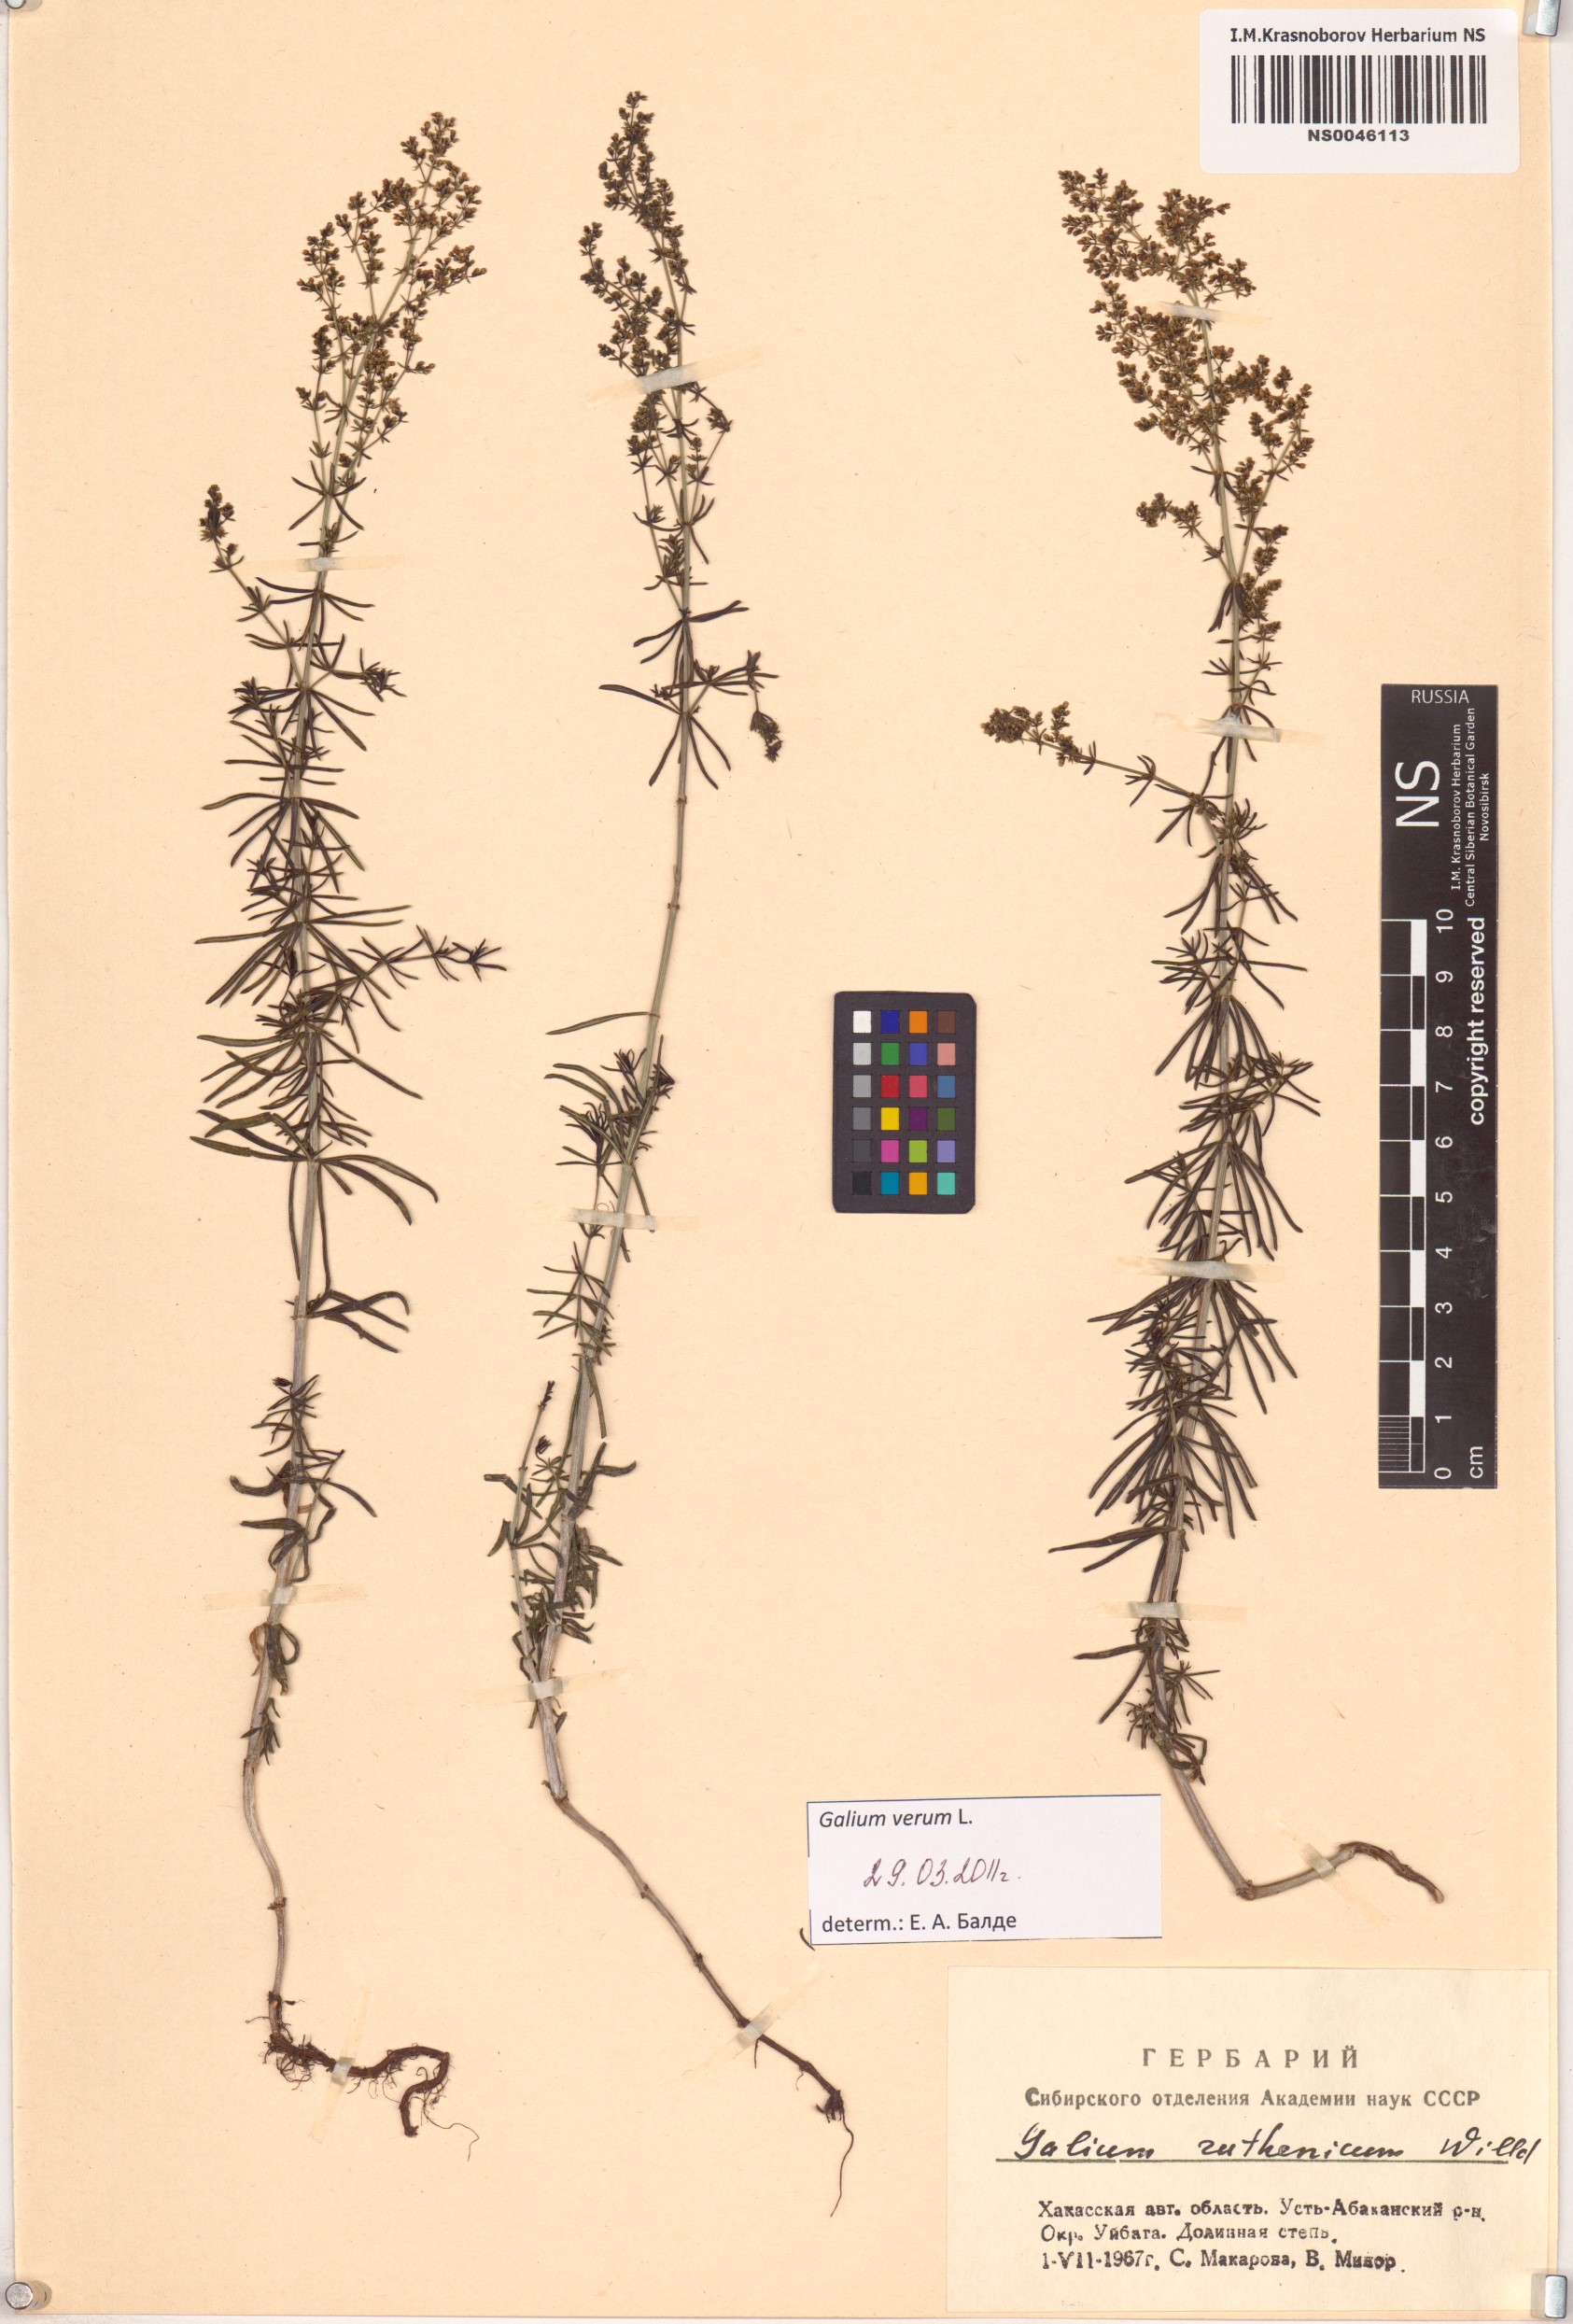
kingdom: Plantae
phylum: Tracheophyta
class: Magnoliopsida
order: Gentianales
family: Rubiaceae
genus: Galium
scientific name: Galium verum
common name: Lady's bedstraw
